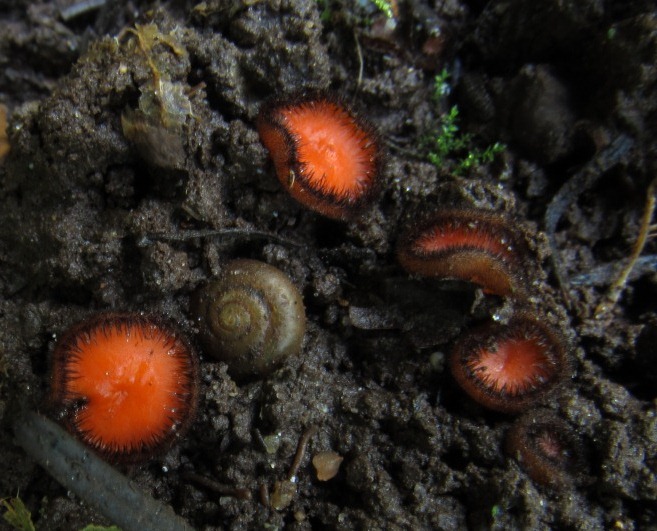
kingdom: Fungi
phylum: Ascomycota
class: Pezizomycetes
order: Pezizales
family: Pyronemataceae
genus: Scutellinia
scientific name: Scutellinia trechispora
